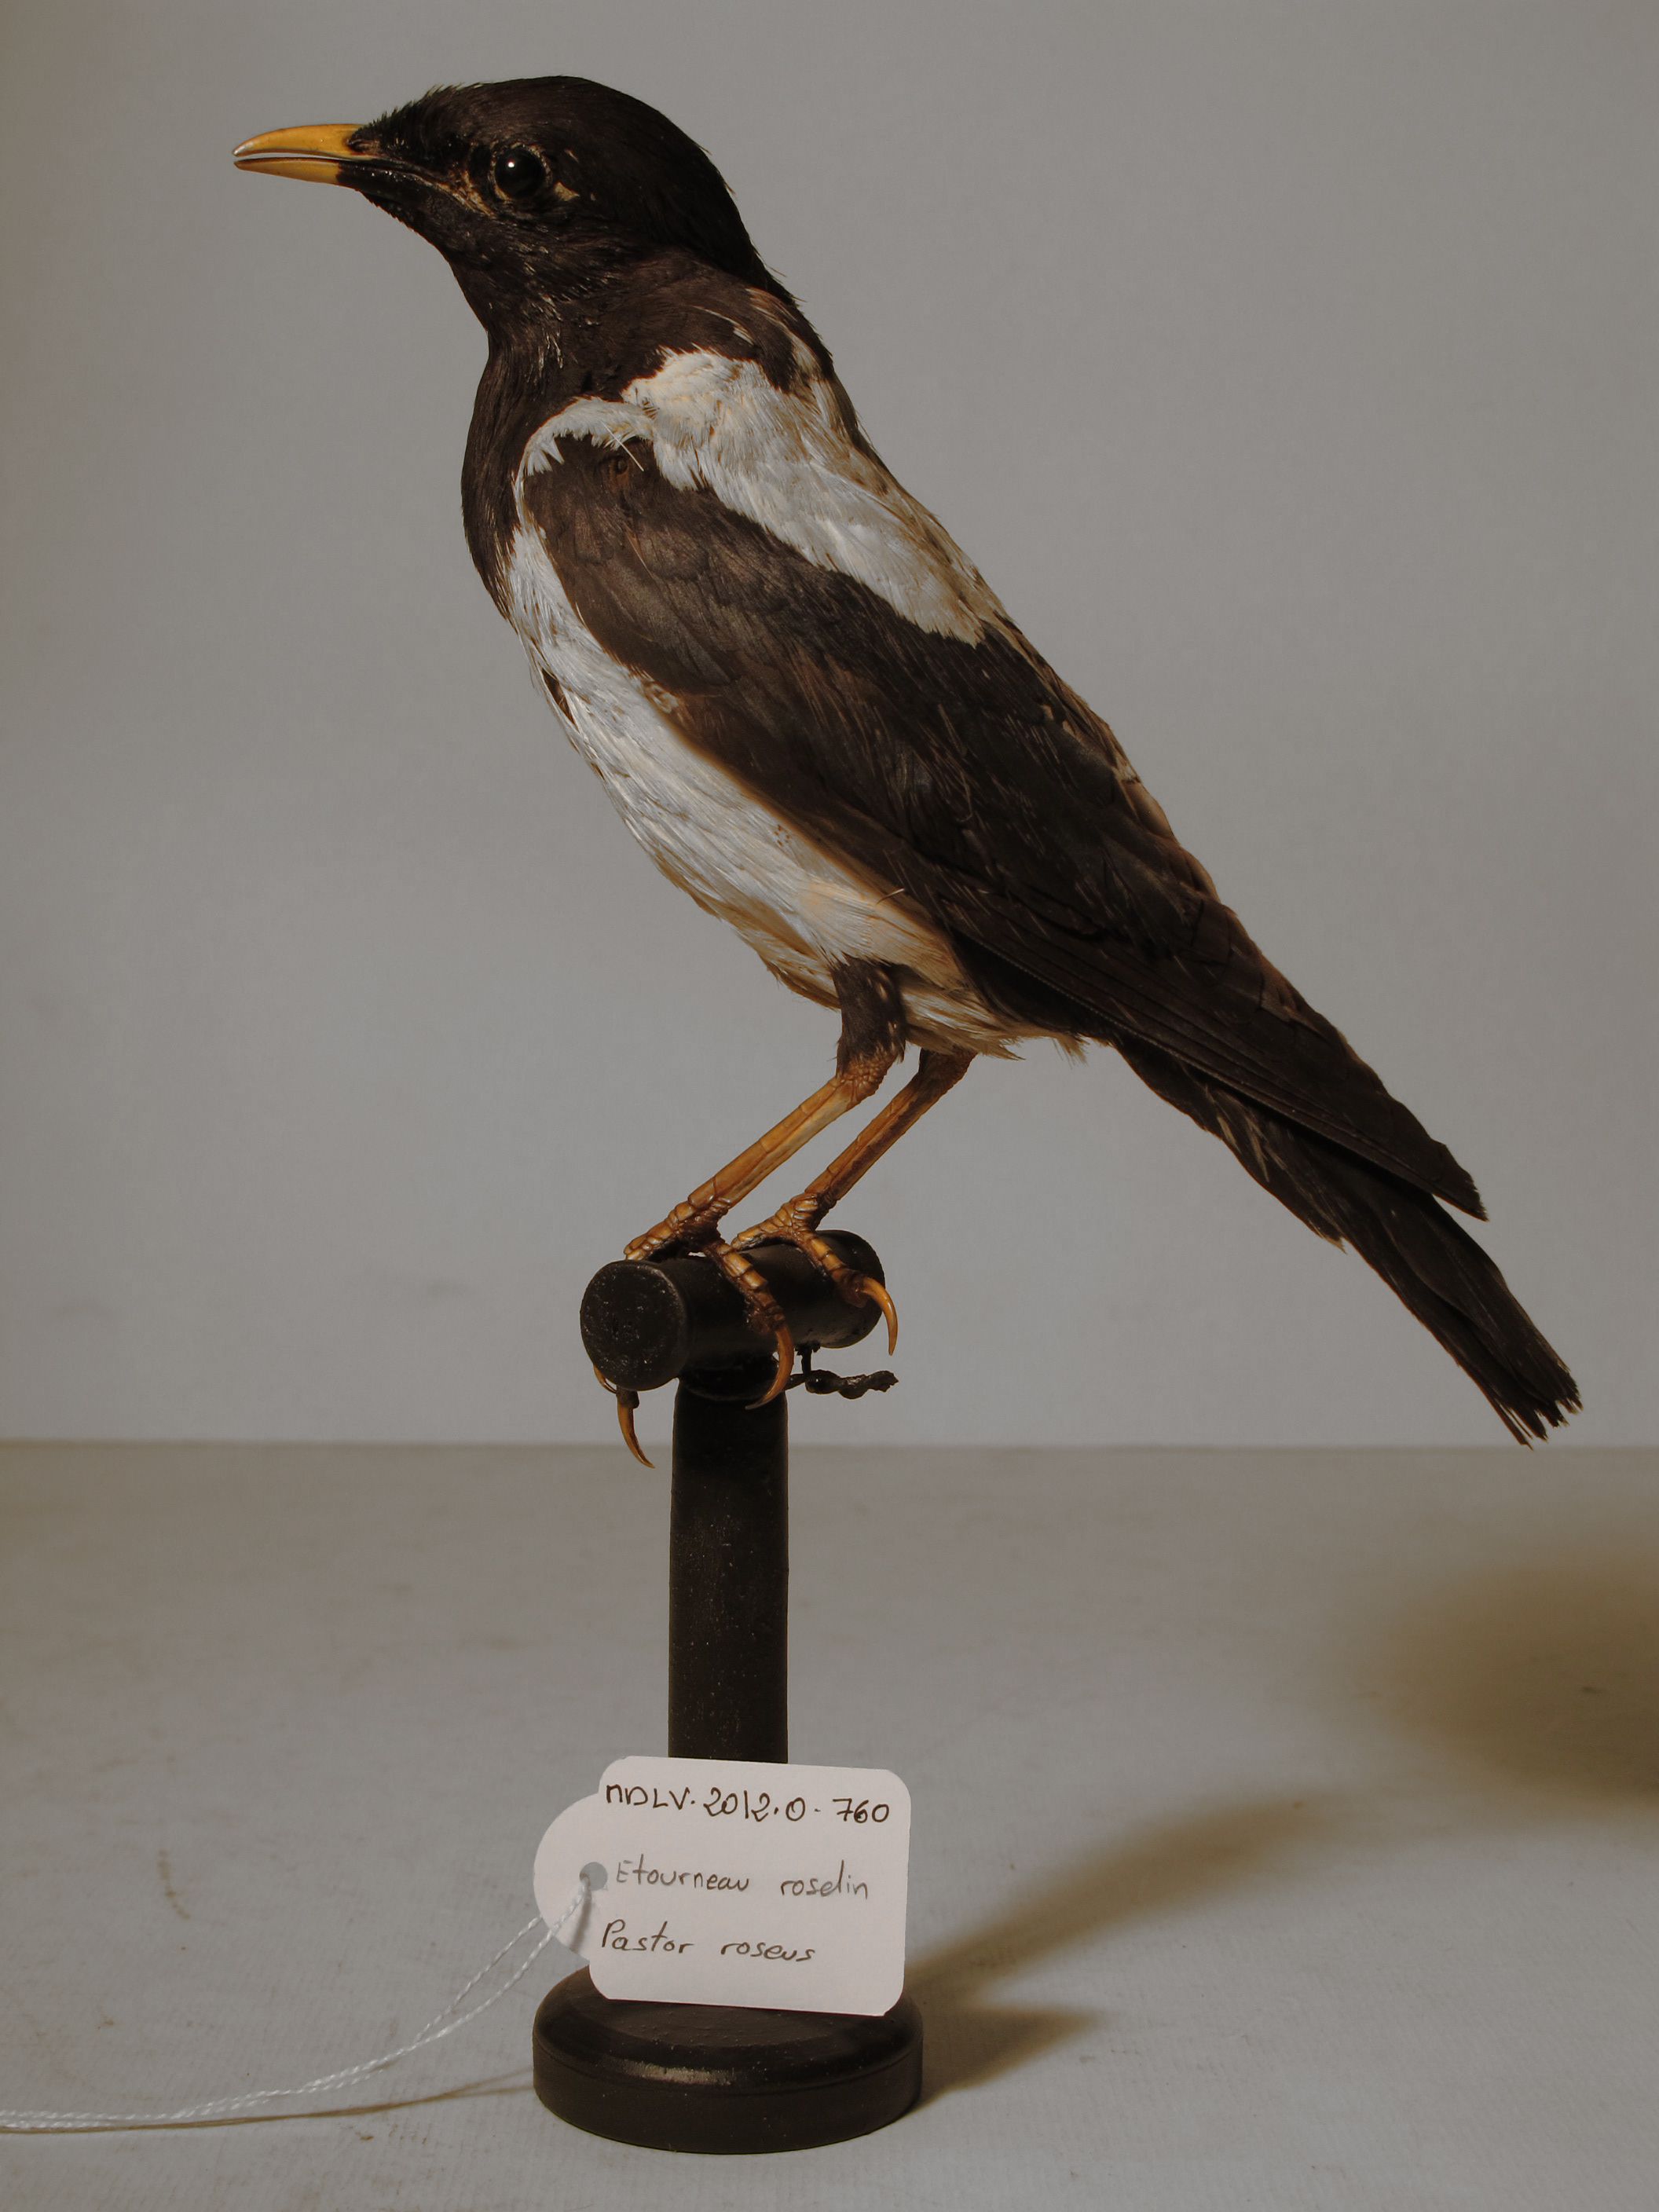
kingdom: Animalia
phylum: Chordata
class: Aves
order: Passeriformes
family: Sturnidae
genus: Pastor
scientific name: Pastor roseus
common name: Rose-coloured Starling
